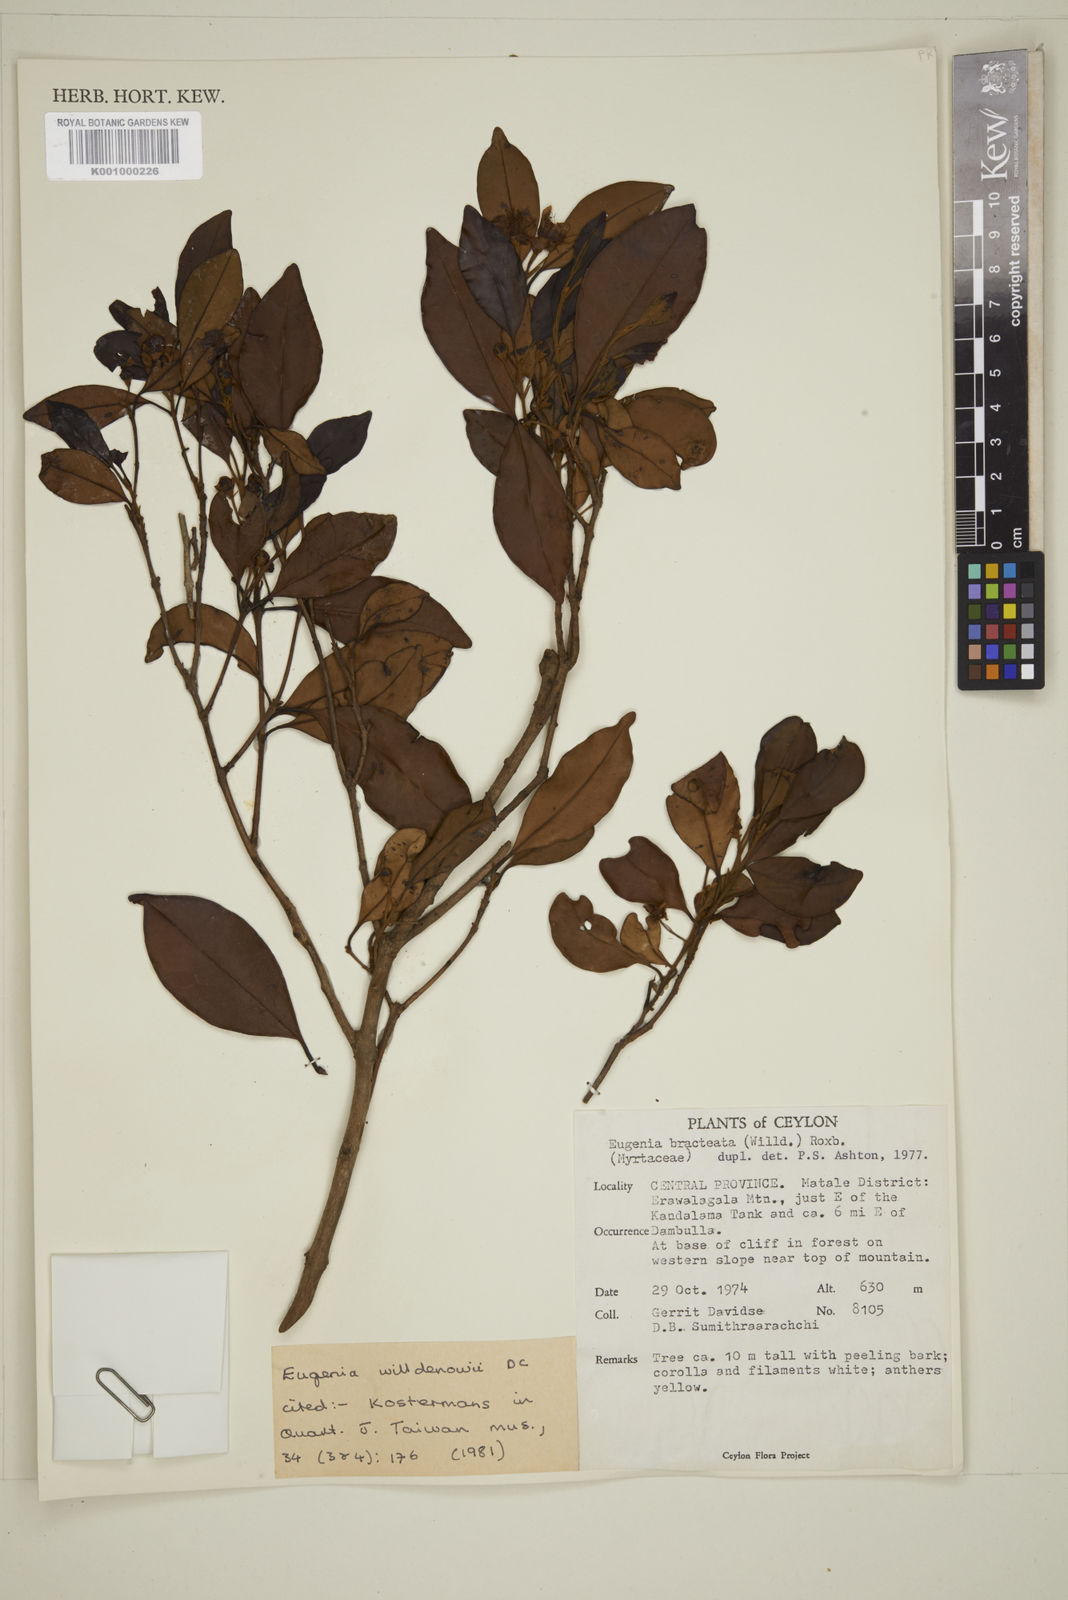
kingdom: Plantae
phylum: Tracheophyta
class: Magnoliopsida
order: Myrtales
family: Myrtaceae
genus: Eugenia
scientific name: Eugenia pseudopsidium
